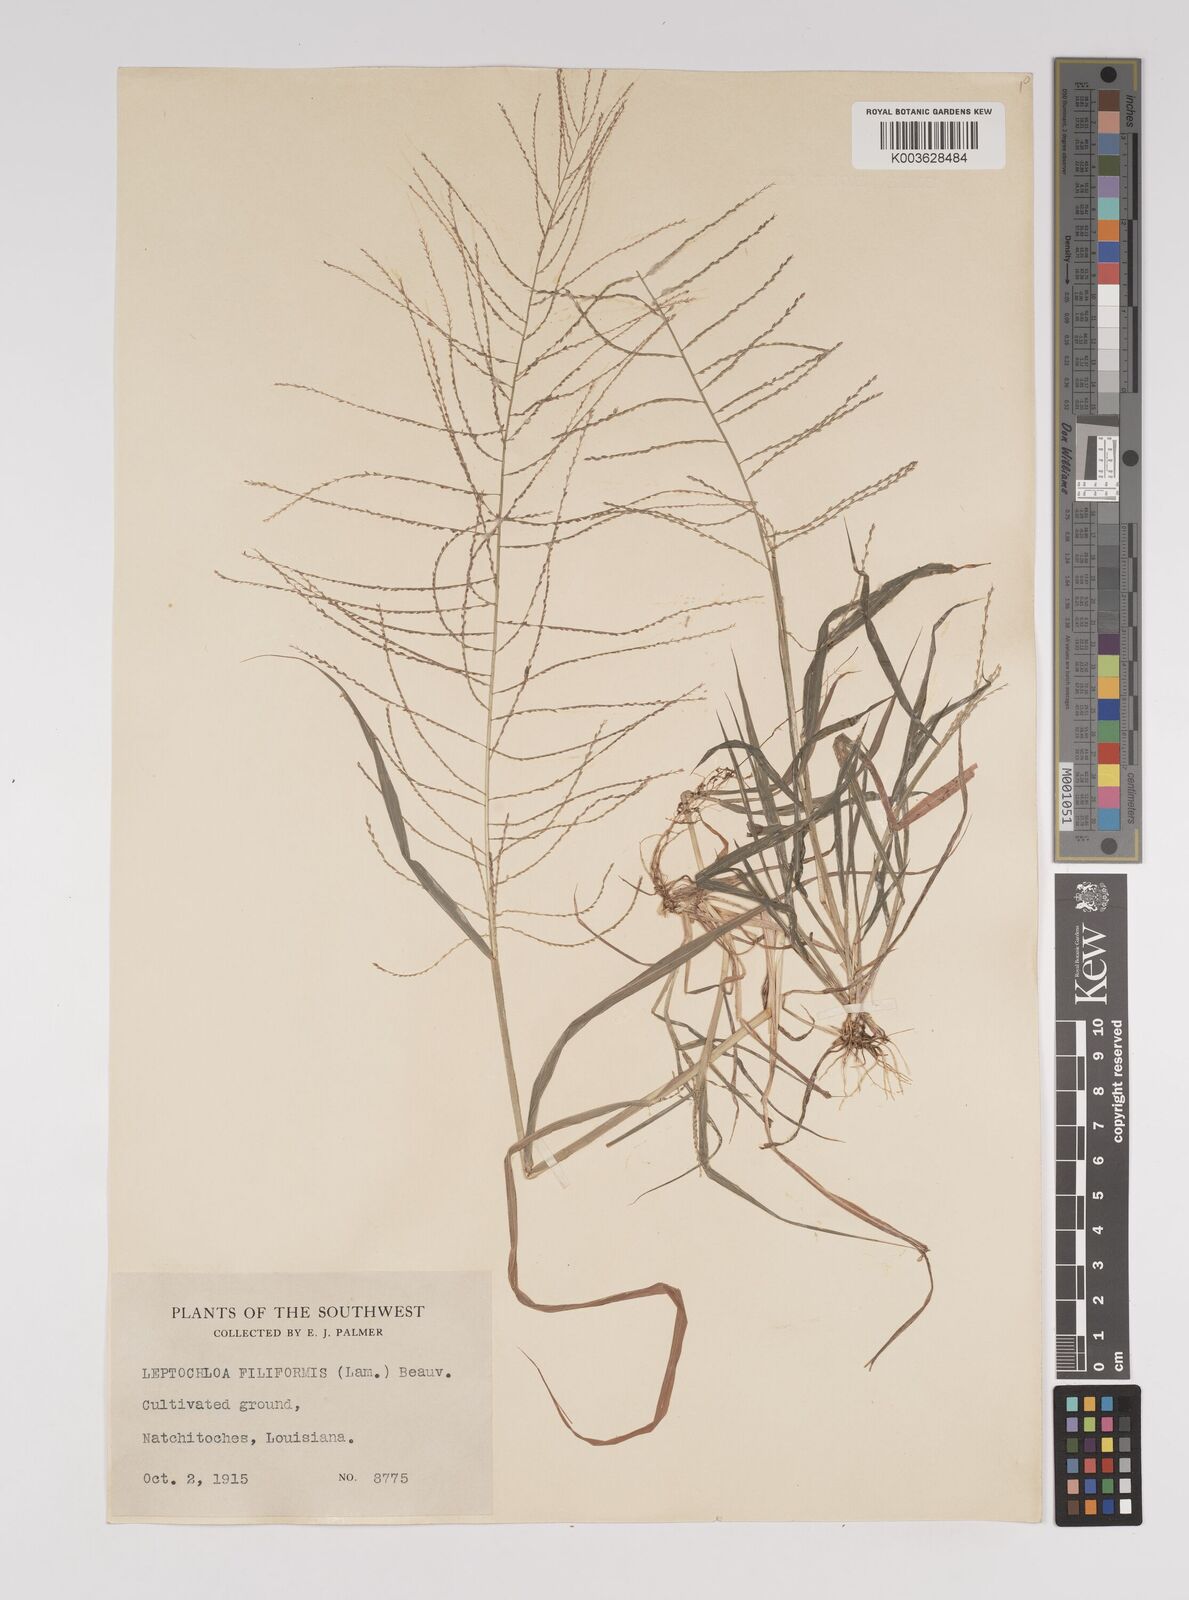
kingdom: Plantae
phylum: Tracheophyta
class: Liliopsida
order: Poales
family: Poaceae
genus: Leptochloa
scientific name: Leptochloa panicea
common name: Mucronate sprangletop
